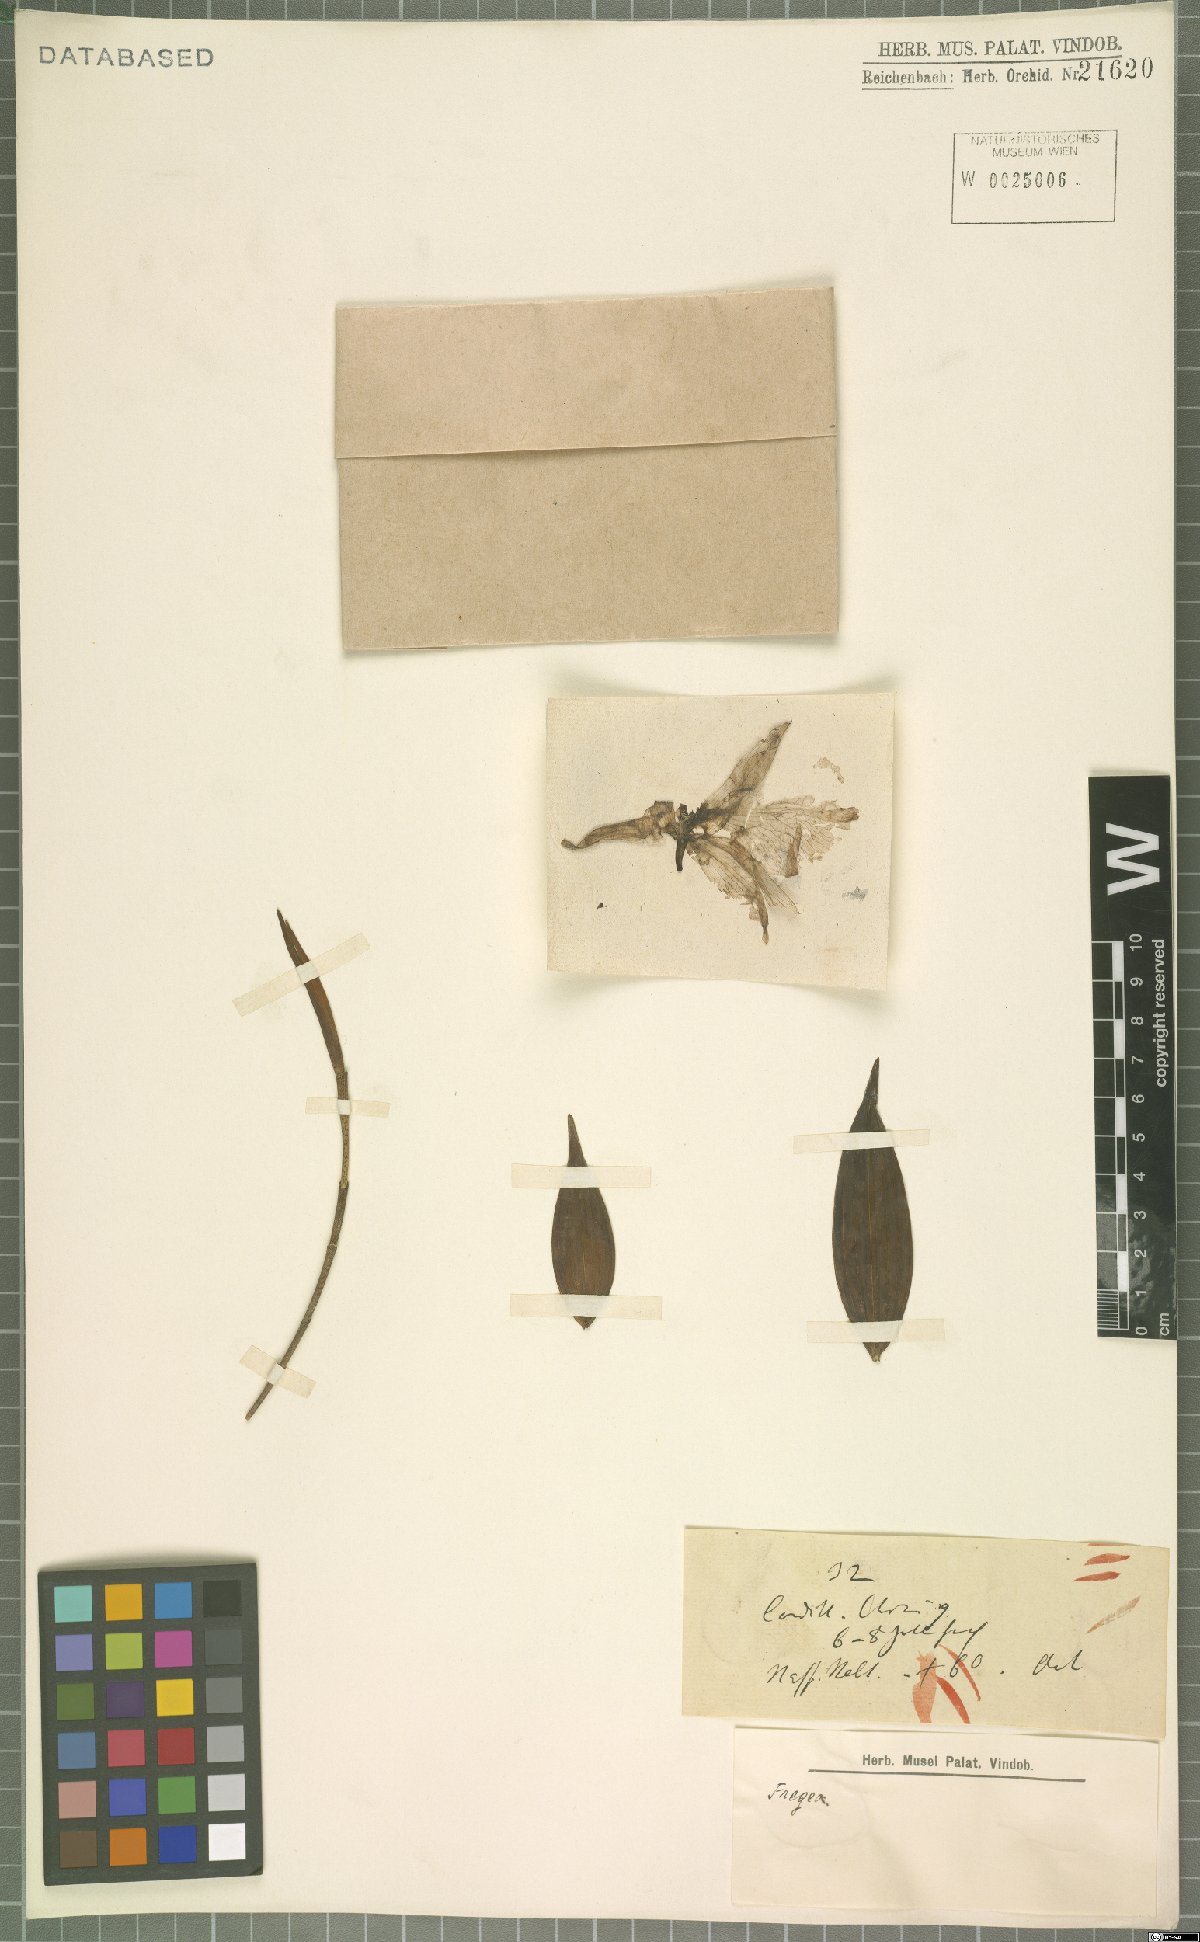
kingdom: Plantae
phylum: Tracheophyta
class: Liliopsida
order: Asparagales
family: Orchidaceae
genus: Sobralia
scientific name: Sobralia amabilis
